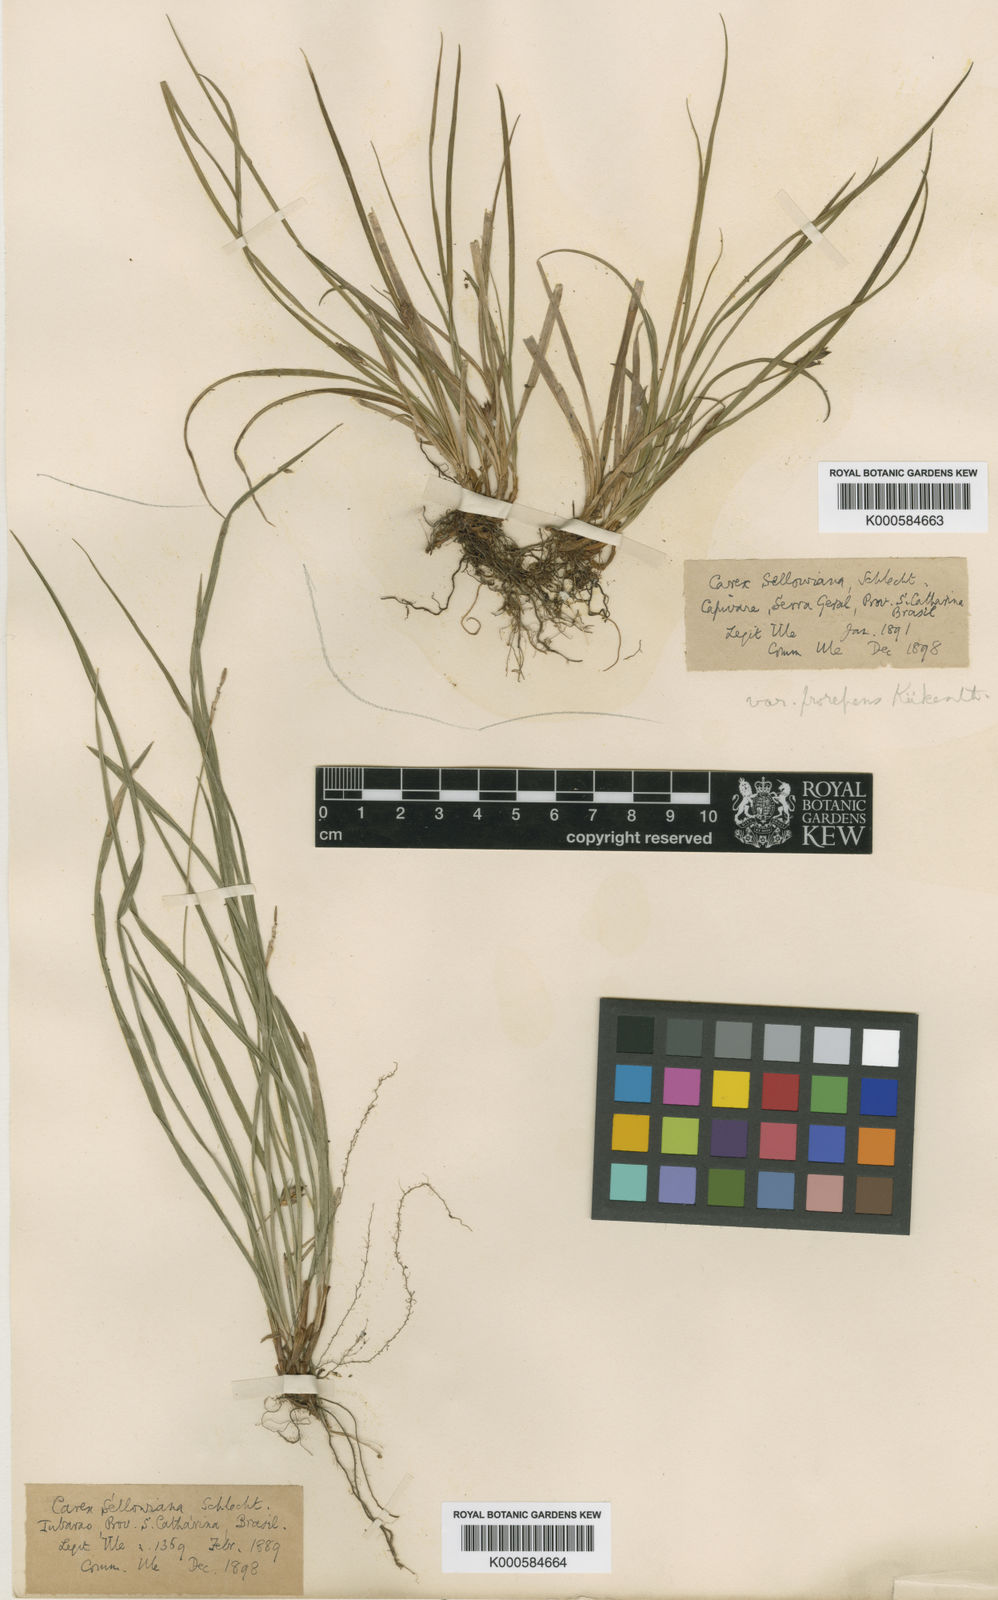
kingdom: Plantae
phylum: Tracheophyta
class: Liliopsida
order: Poales
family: Cyperaceae
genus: Carex
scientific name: Carex sellowiana
